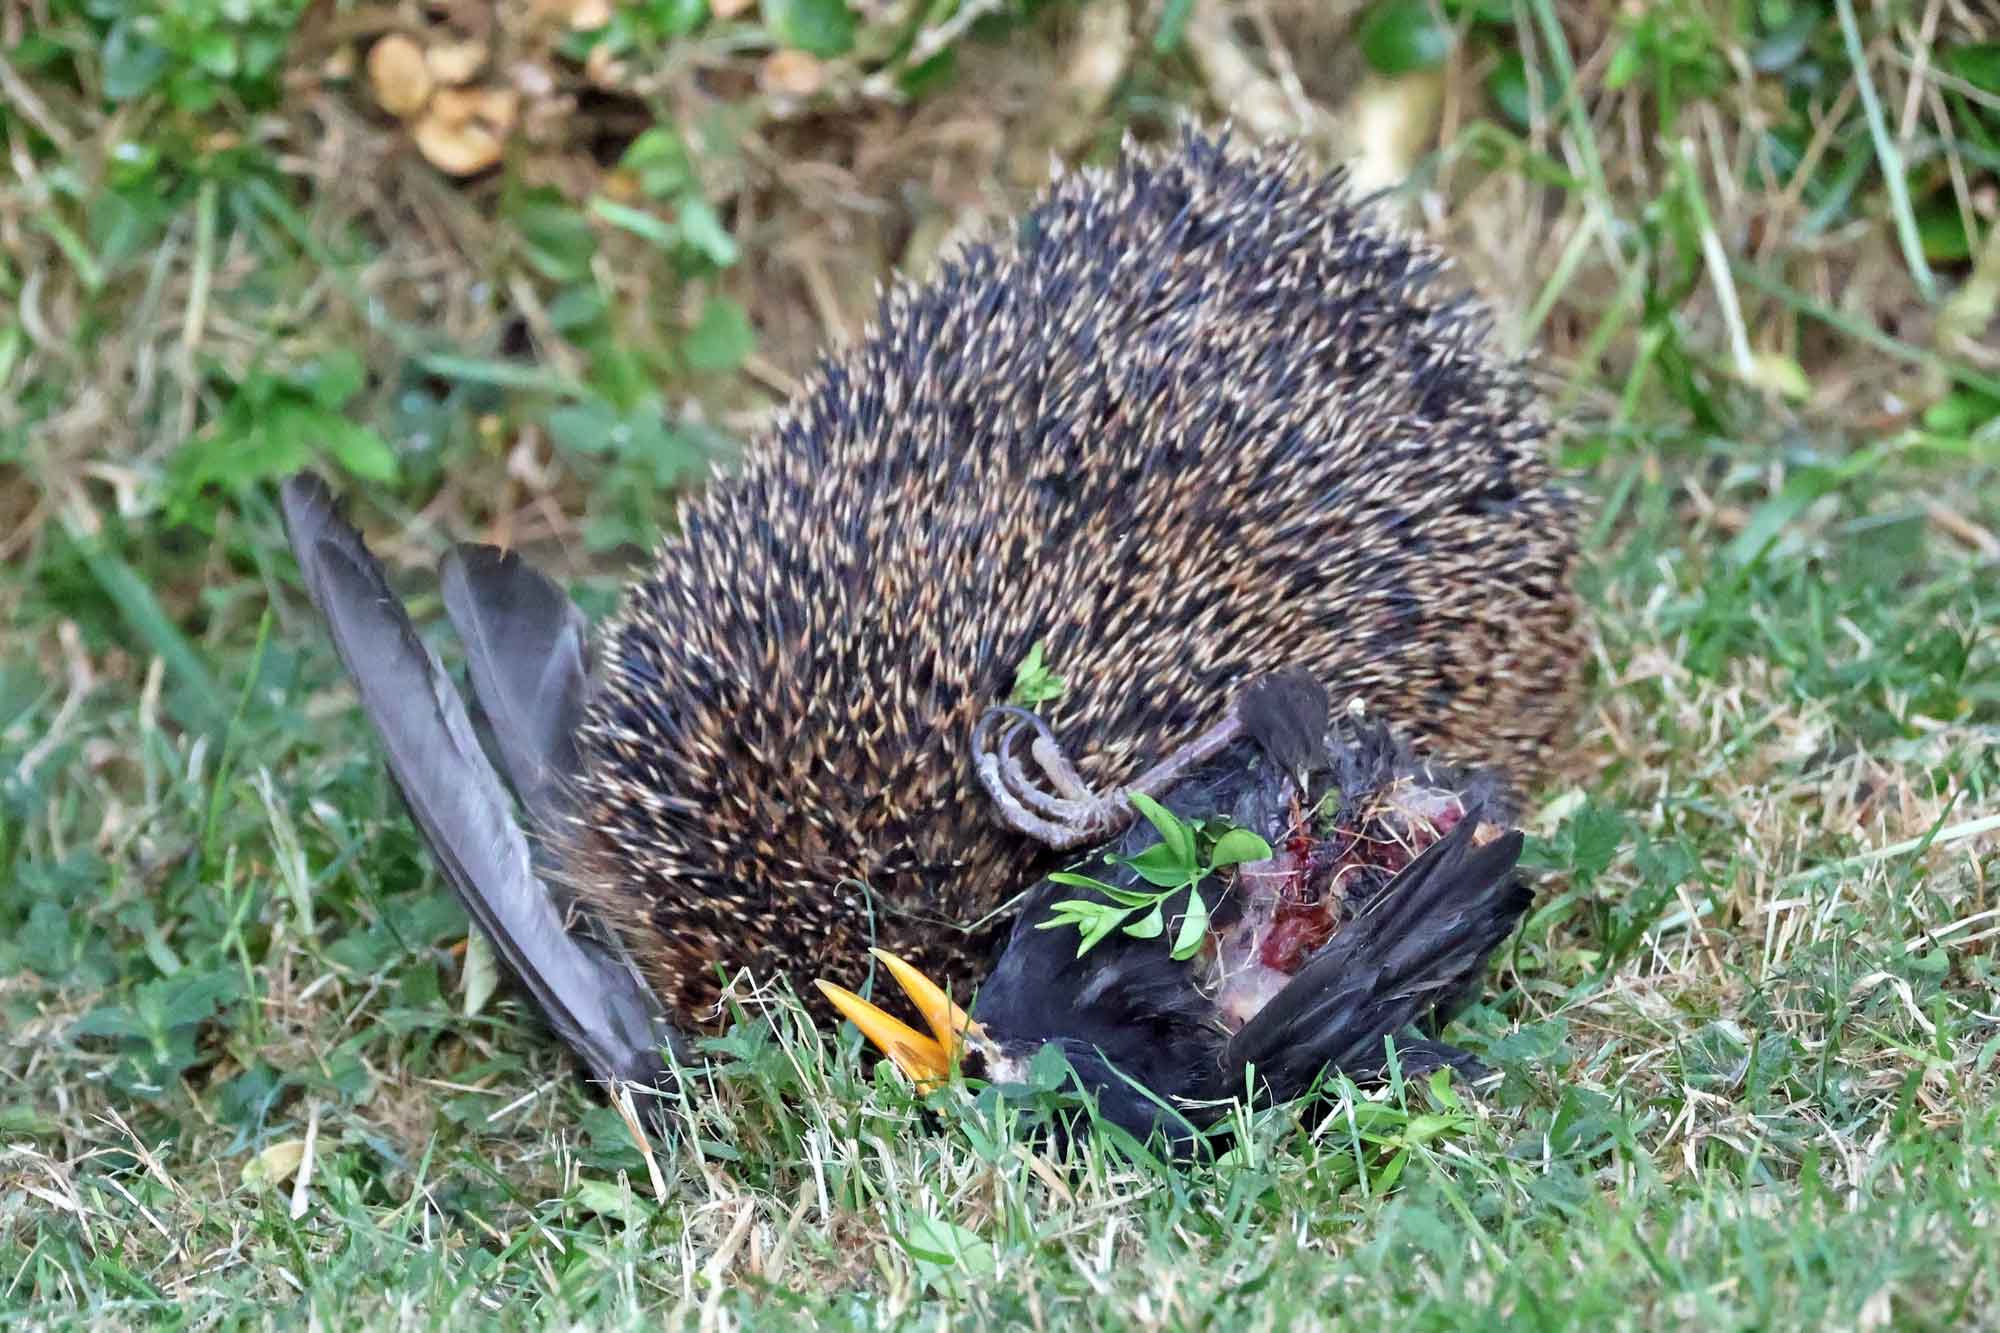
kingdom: Animalia
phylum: Chordata
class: Mammalia
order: Erinaceomorpha
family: Erinaceidae
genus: Erinaceus
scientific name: Erinaceus europaeus
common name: Pindsvin
